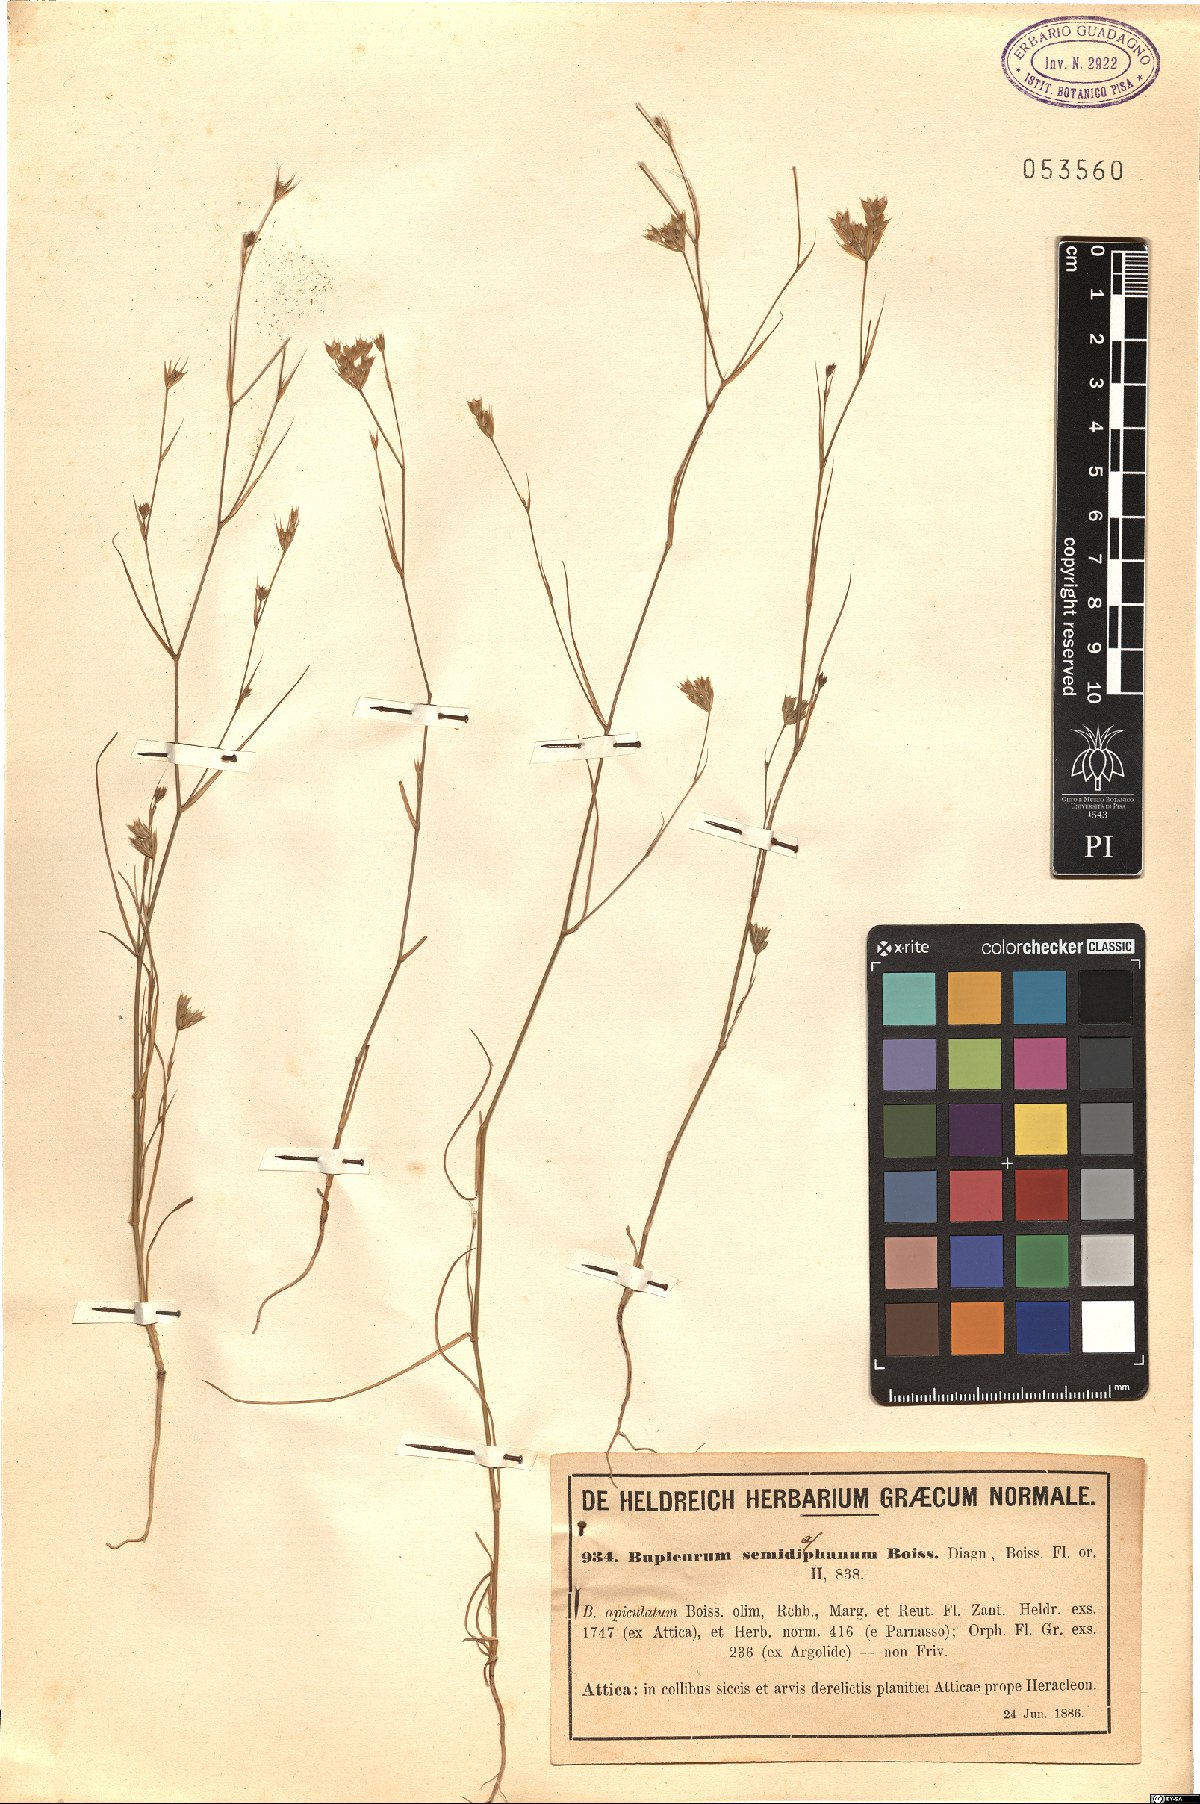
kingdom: Plantae
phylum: Tracheophyta
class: Magnoliopsida
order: Apiales
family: Apiaceae
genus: Bupleurum
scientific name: Bupleurum glumaceum
